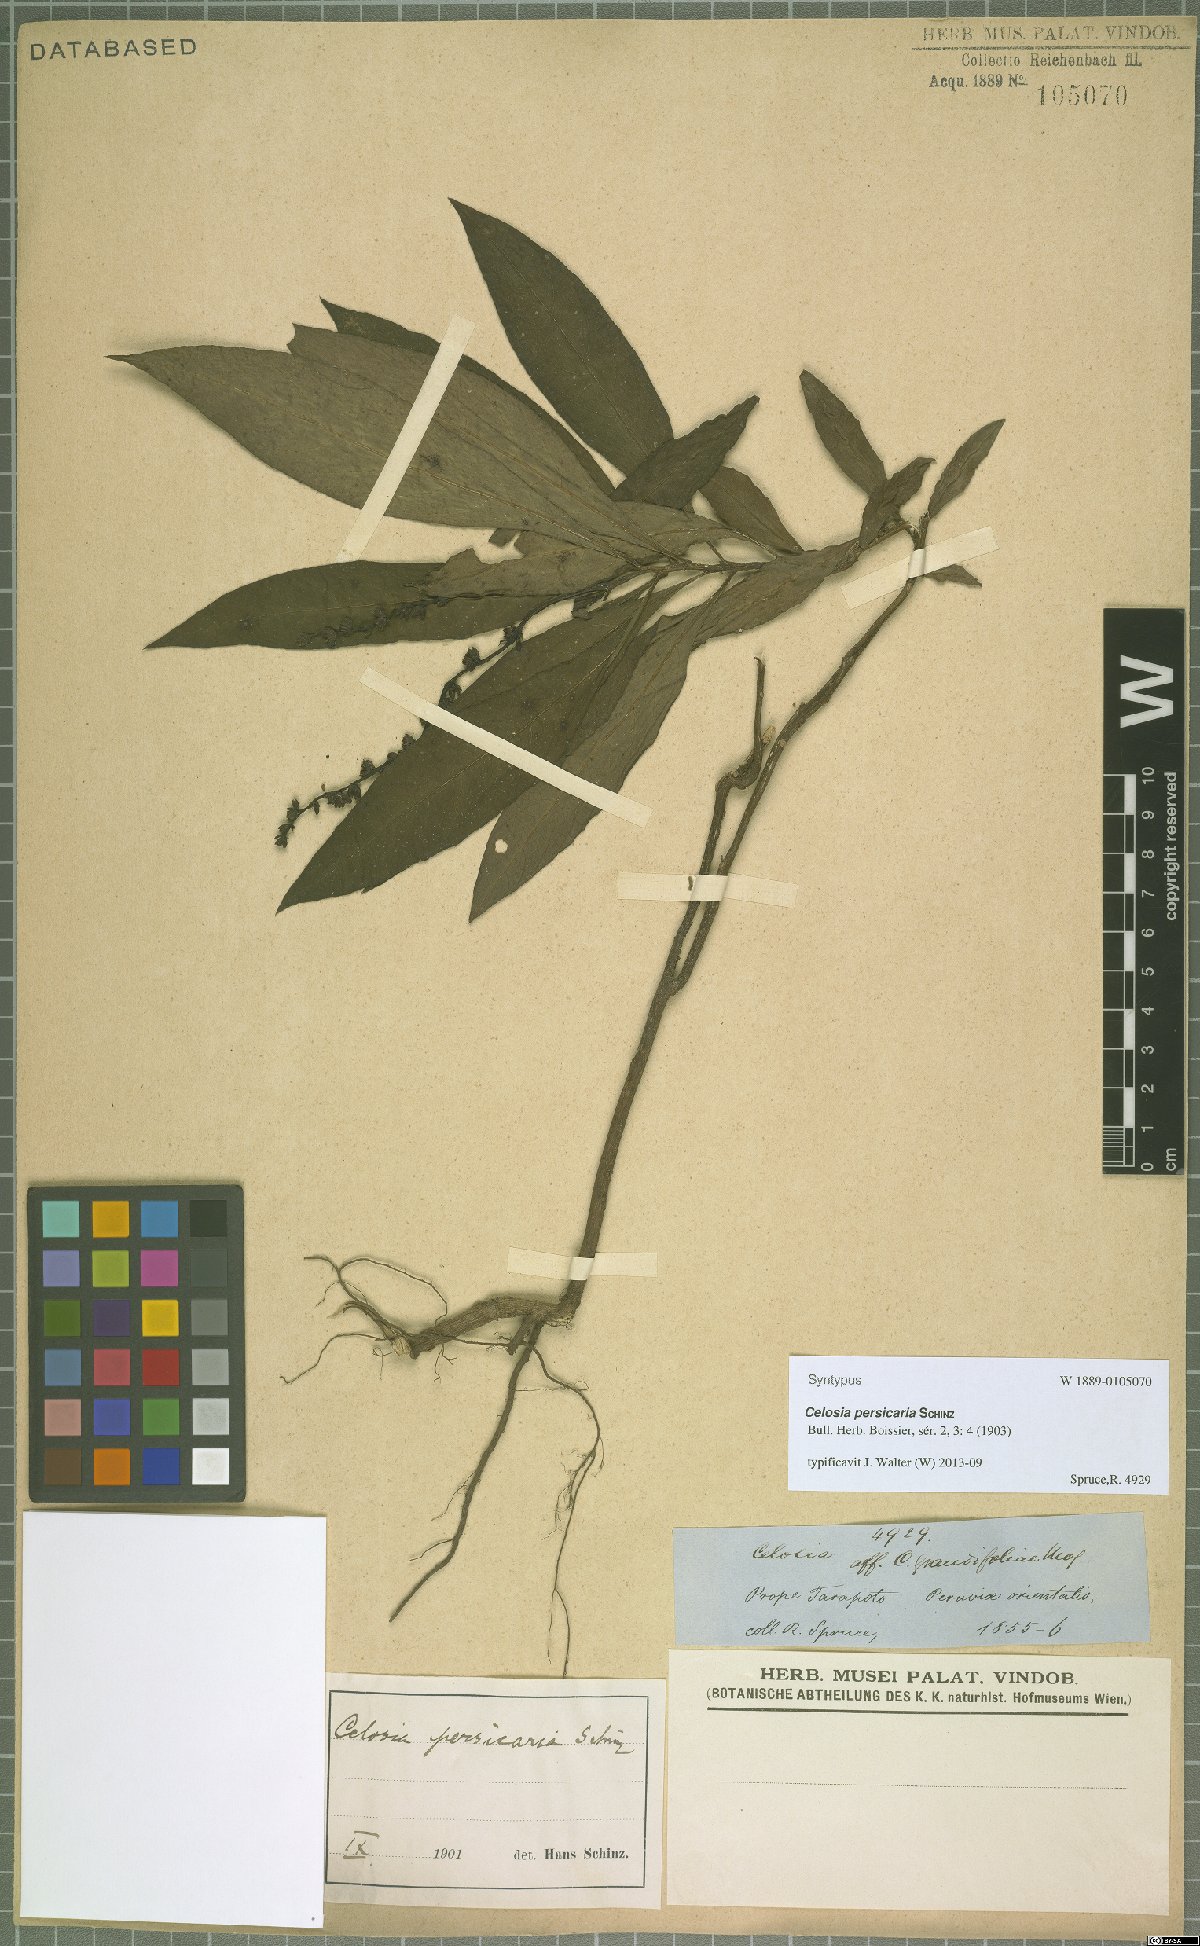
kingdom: Plantae
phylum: Tracheophyta
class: Magnoliopsida
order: Caryophyllales
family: Amaranthaceae
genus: Celosia
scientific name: Celosia persicaria
